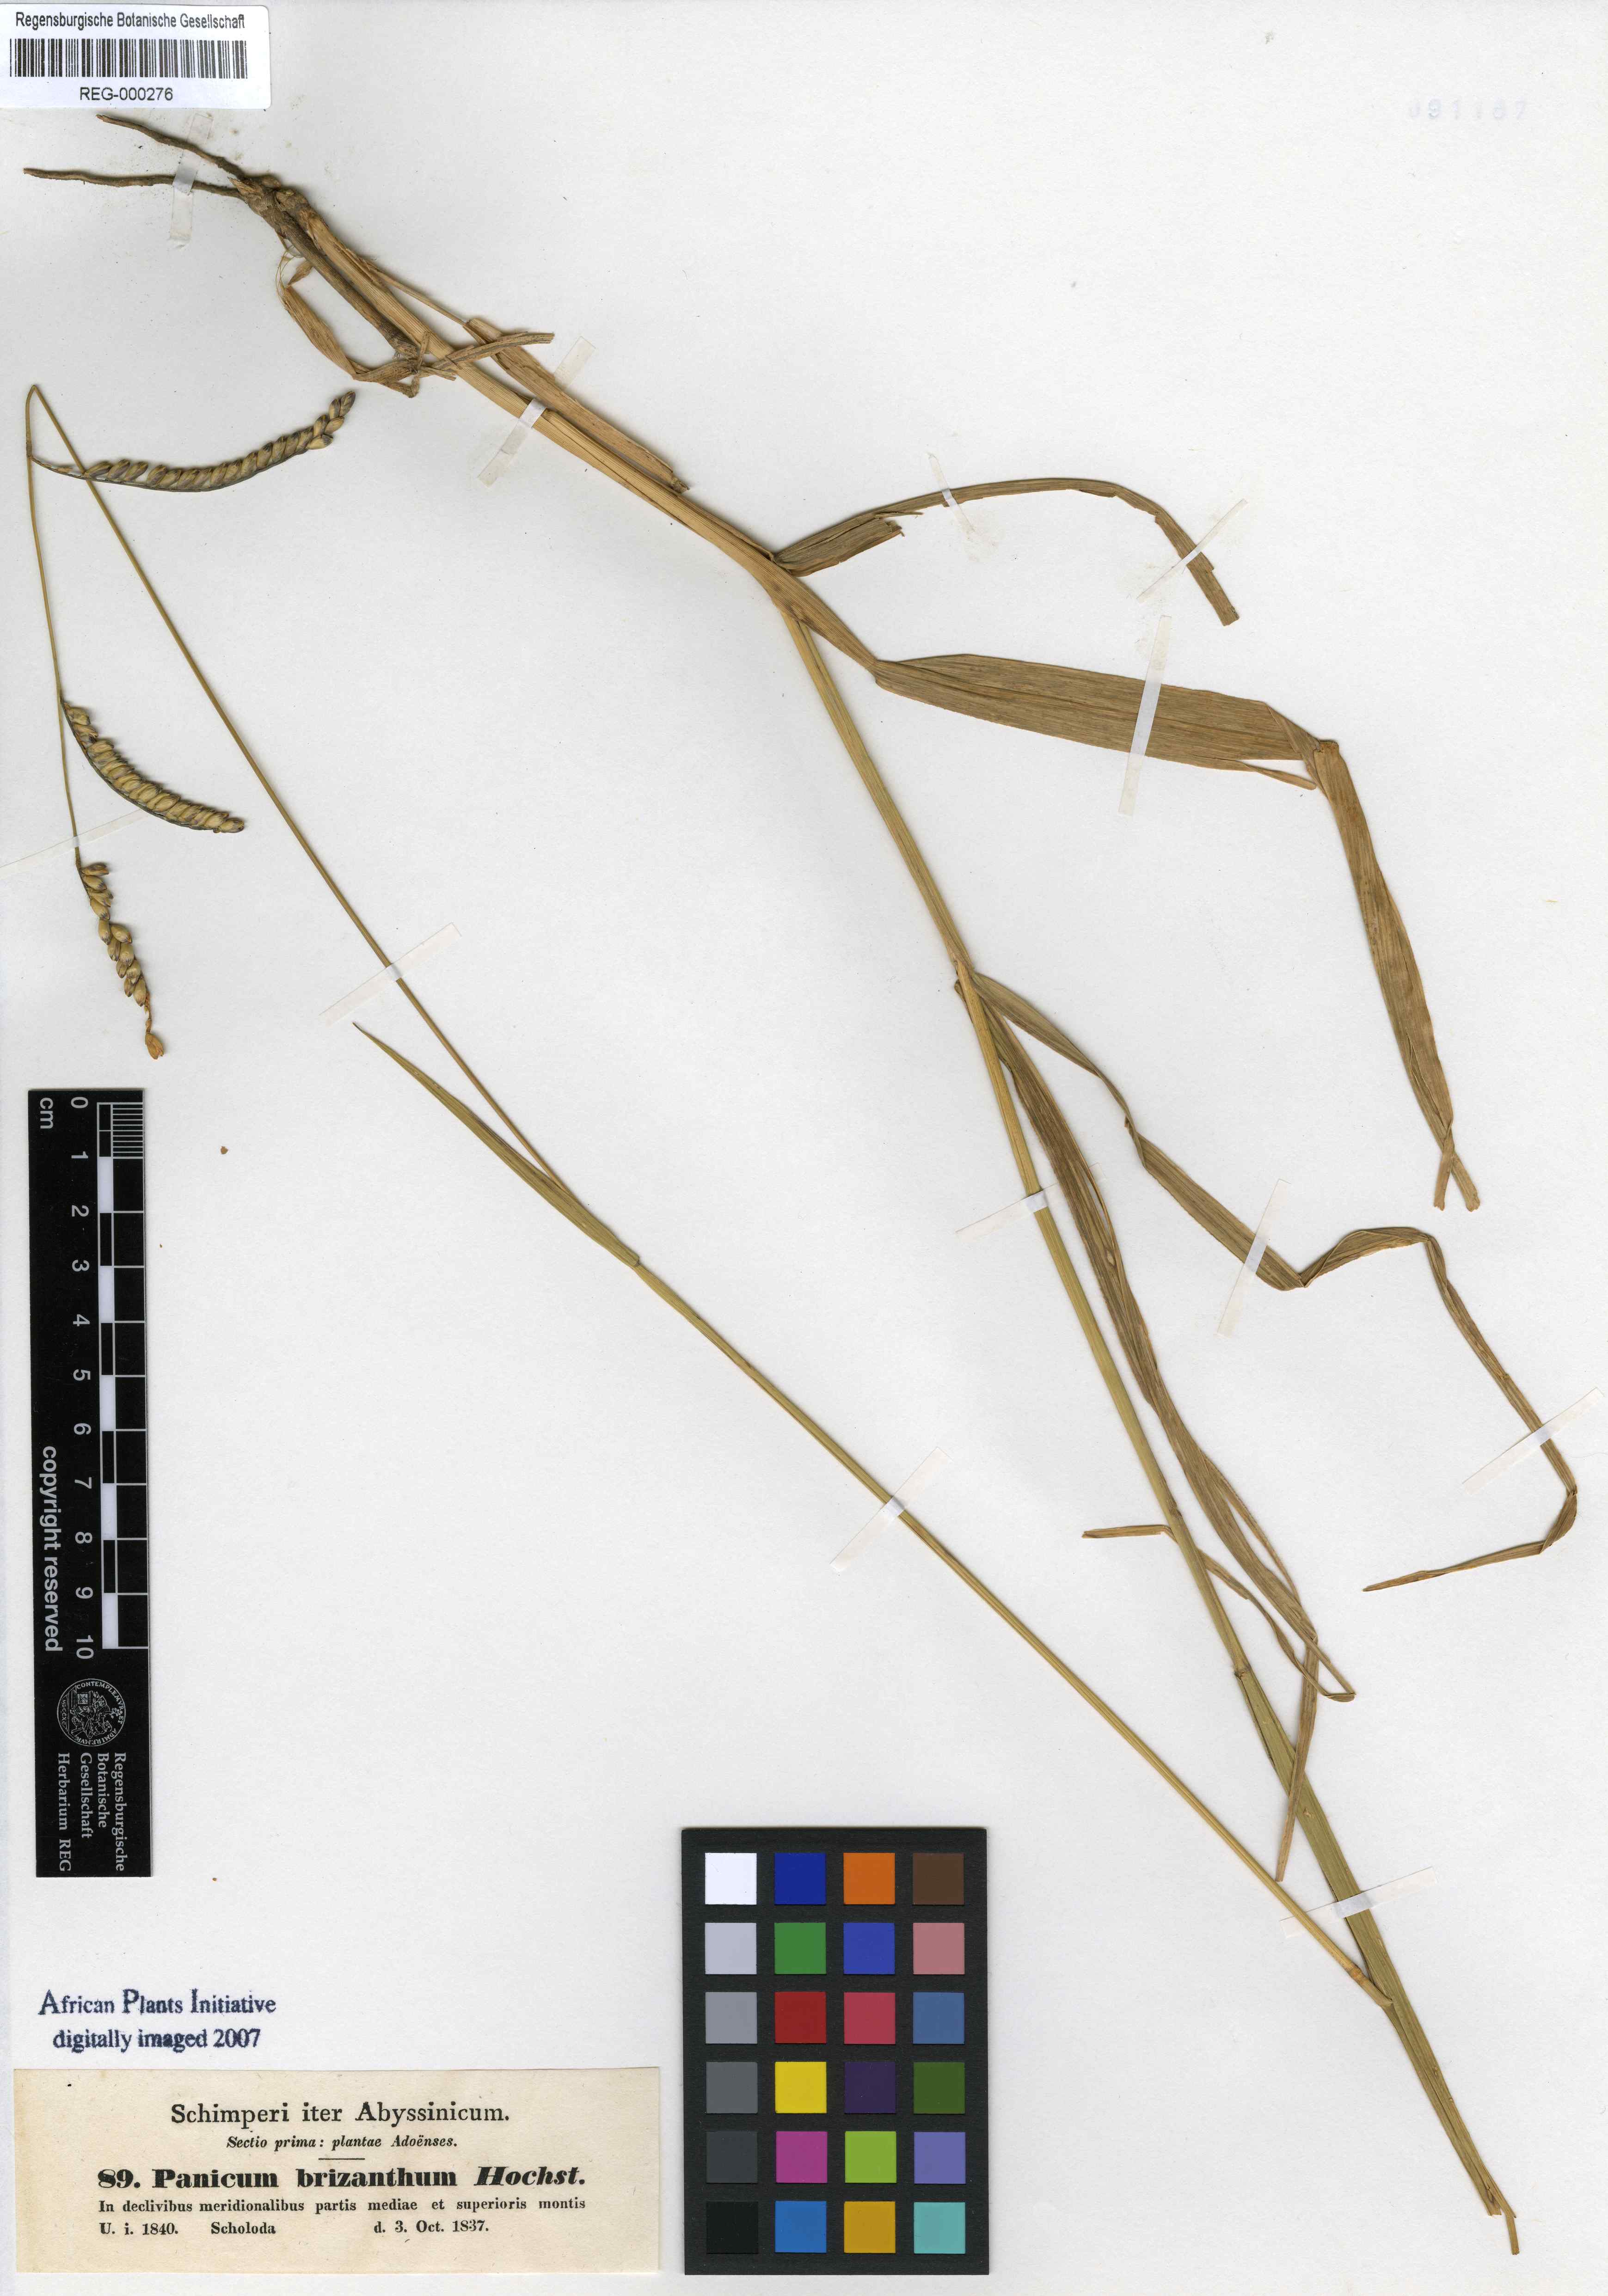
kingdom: Plantae
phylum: Tracheophyta
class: Liliopsida
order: Poales
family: Poaceae
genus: Urochloa
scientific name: Urochloa brizantha
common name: Palisade signalgrass
